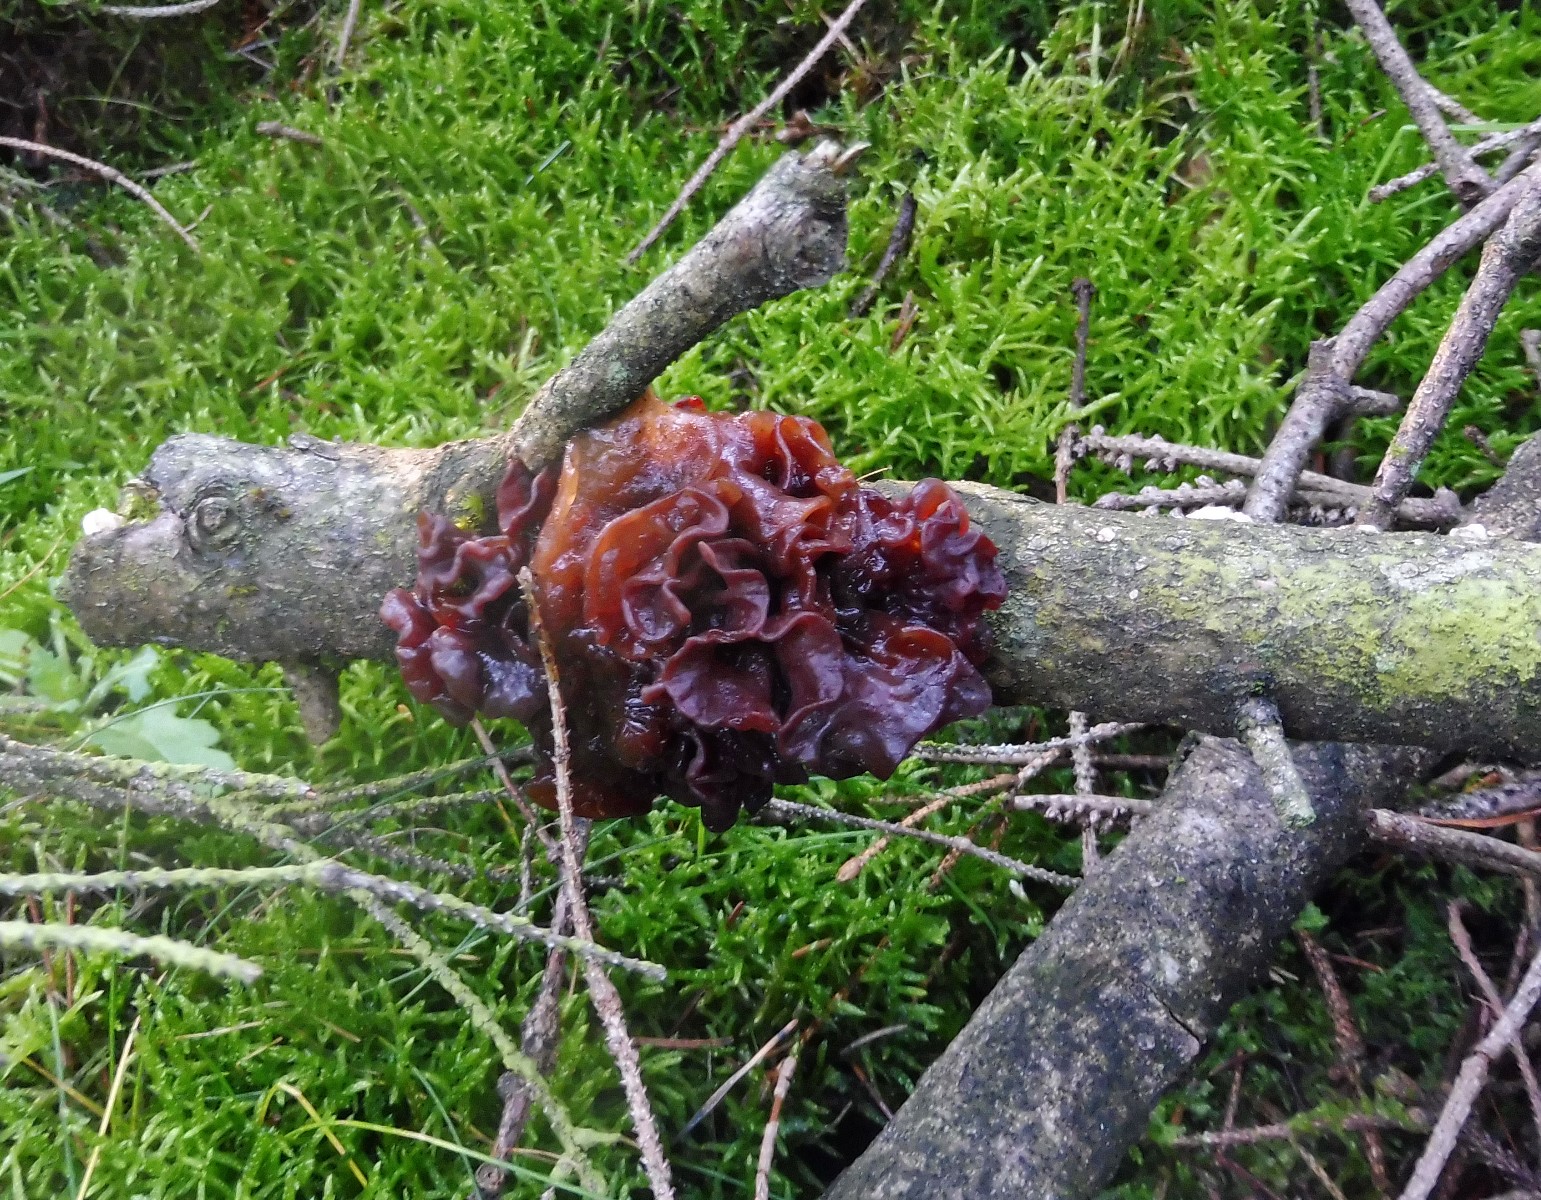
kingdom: Fungi
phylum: Basidiomycota
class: Tremellomycetes
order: Tremellales
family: Tremellaceae
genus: Phaeotremella
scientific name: Phaeotremella foliacea
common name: brun bævresvamp
